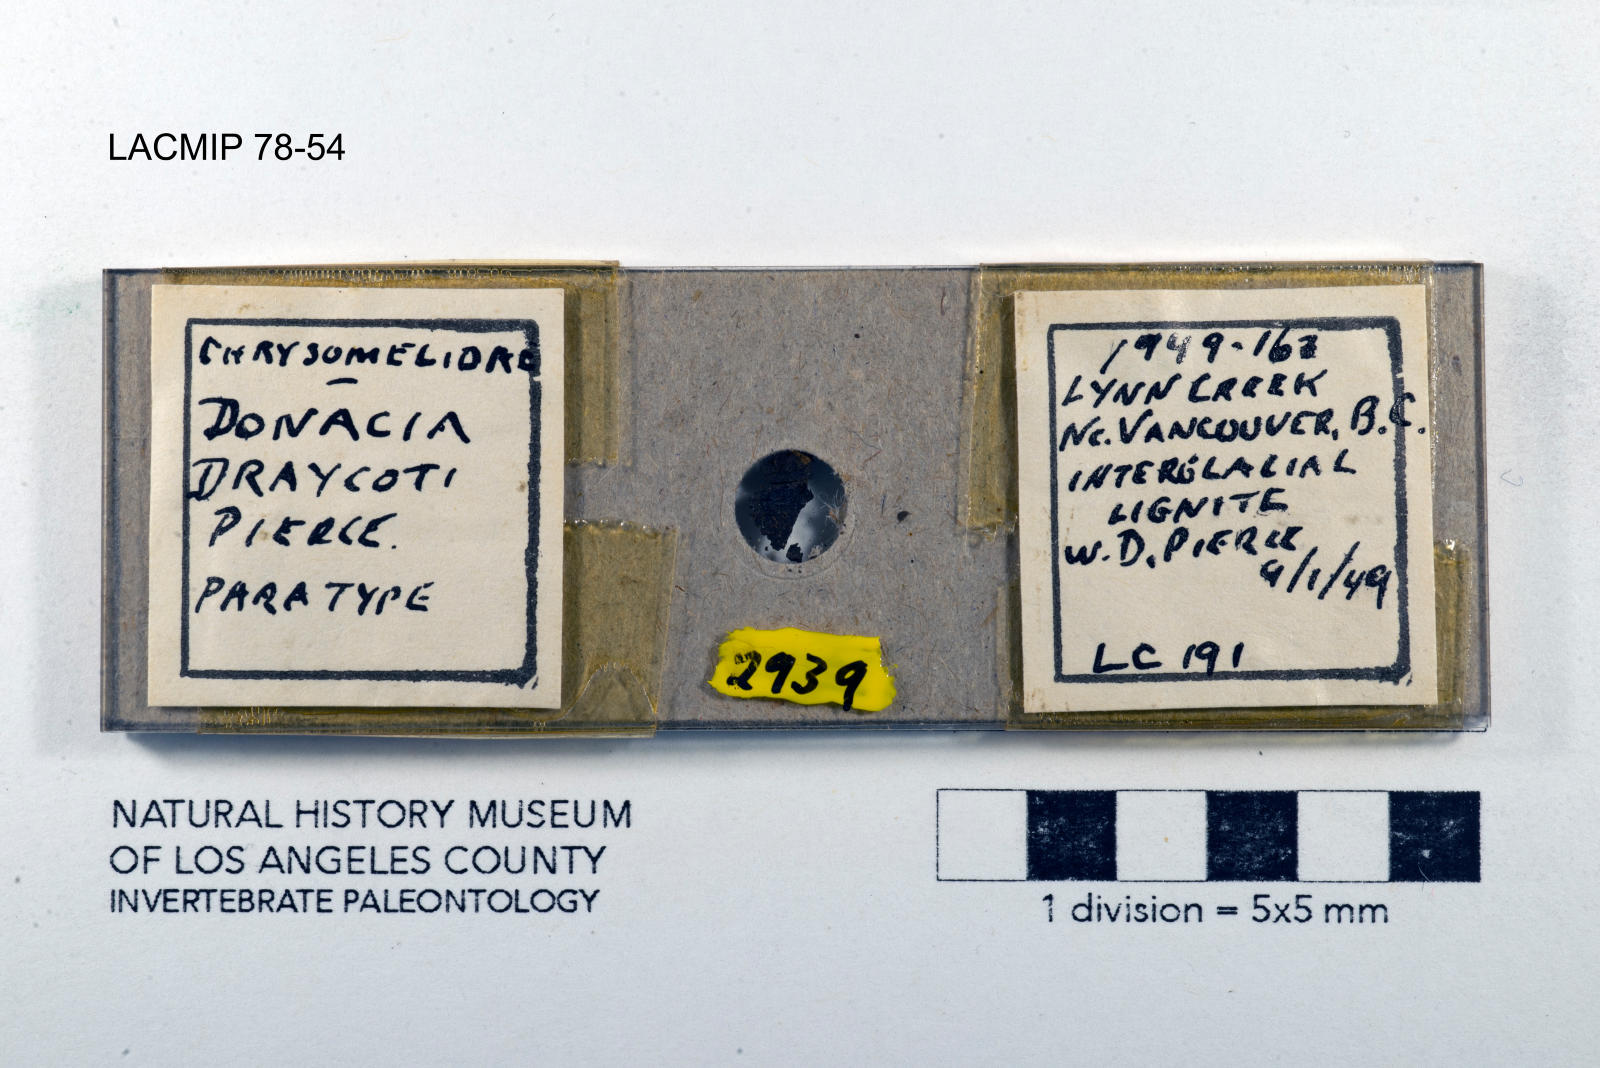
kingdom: Animalia
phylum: Arthropoda
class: Insecta
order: Coleoptera
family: Chrysomelidae
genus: Donacia
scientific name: Donacia draycoti
